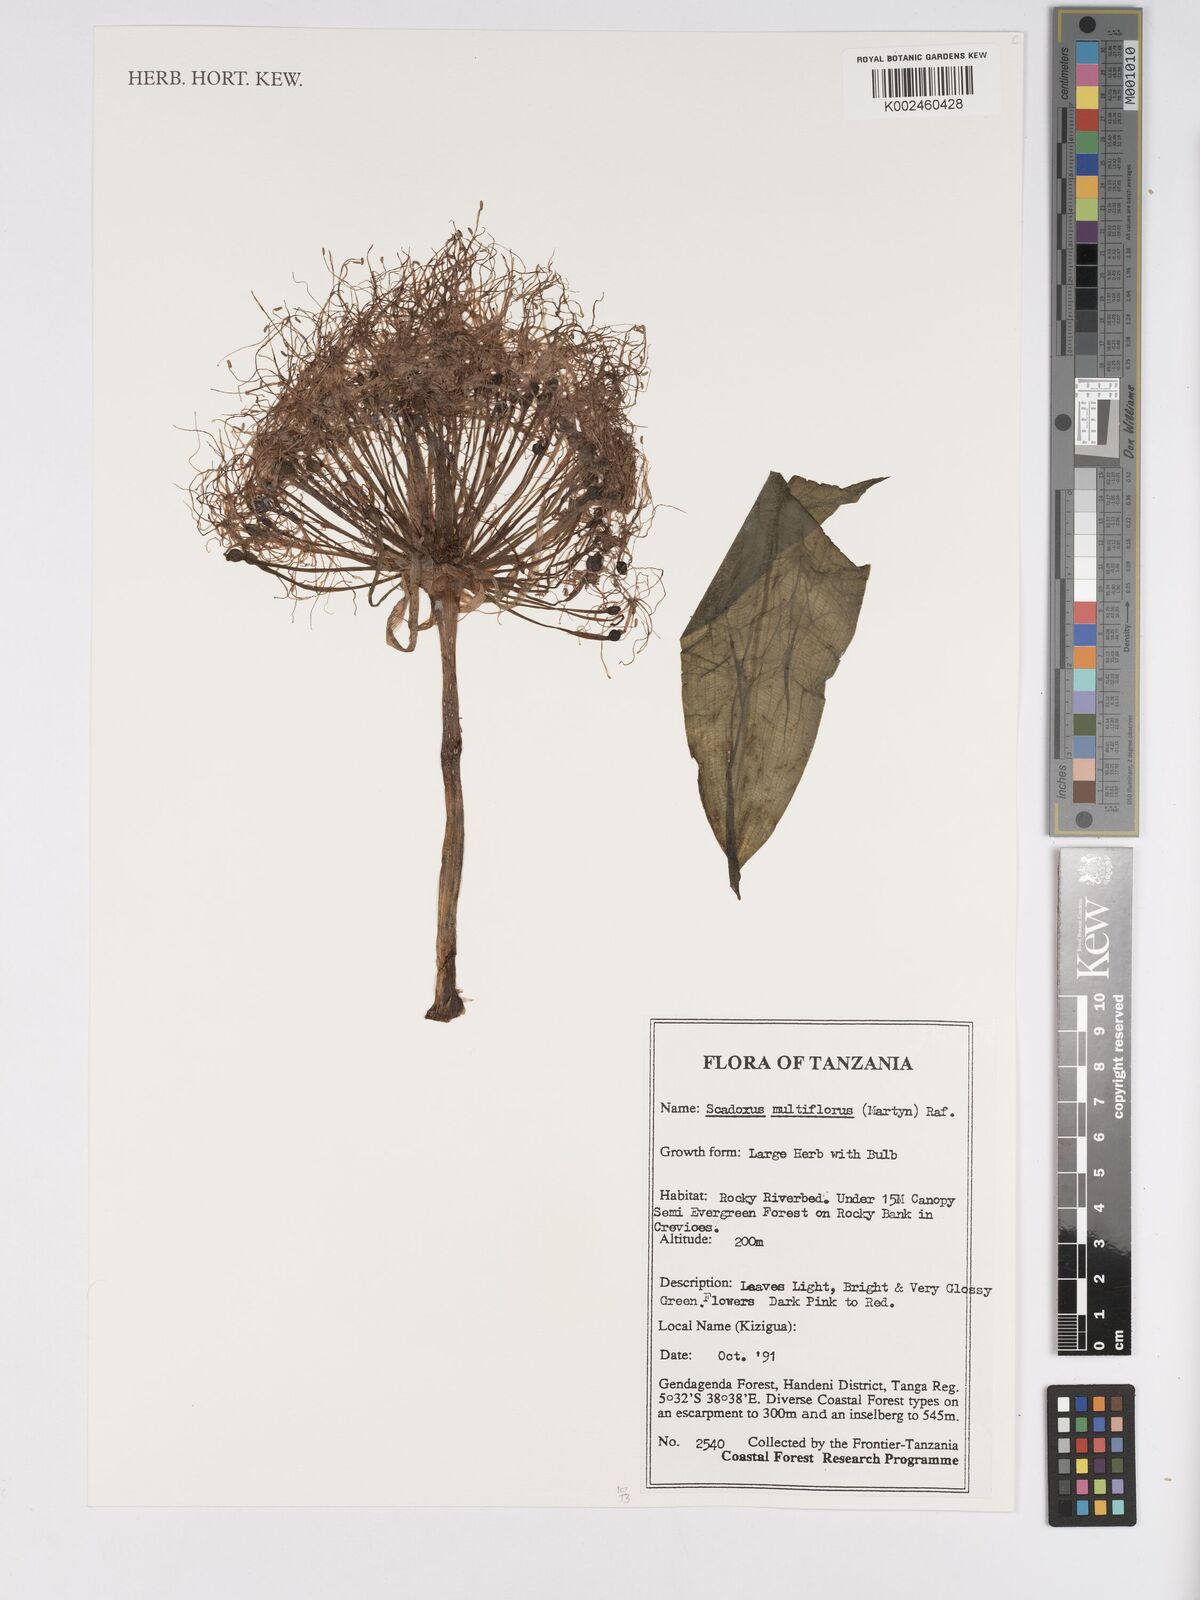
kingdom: Plantae
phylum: Tracheophyta
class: Liliopsida
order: Asparagales
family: Amaryllidaceae
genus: Scadoxus
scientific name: Scadoxus multiflorus
